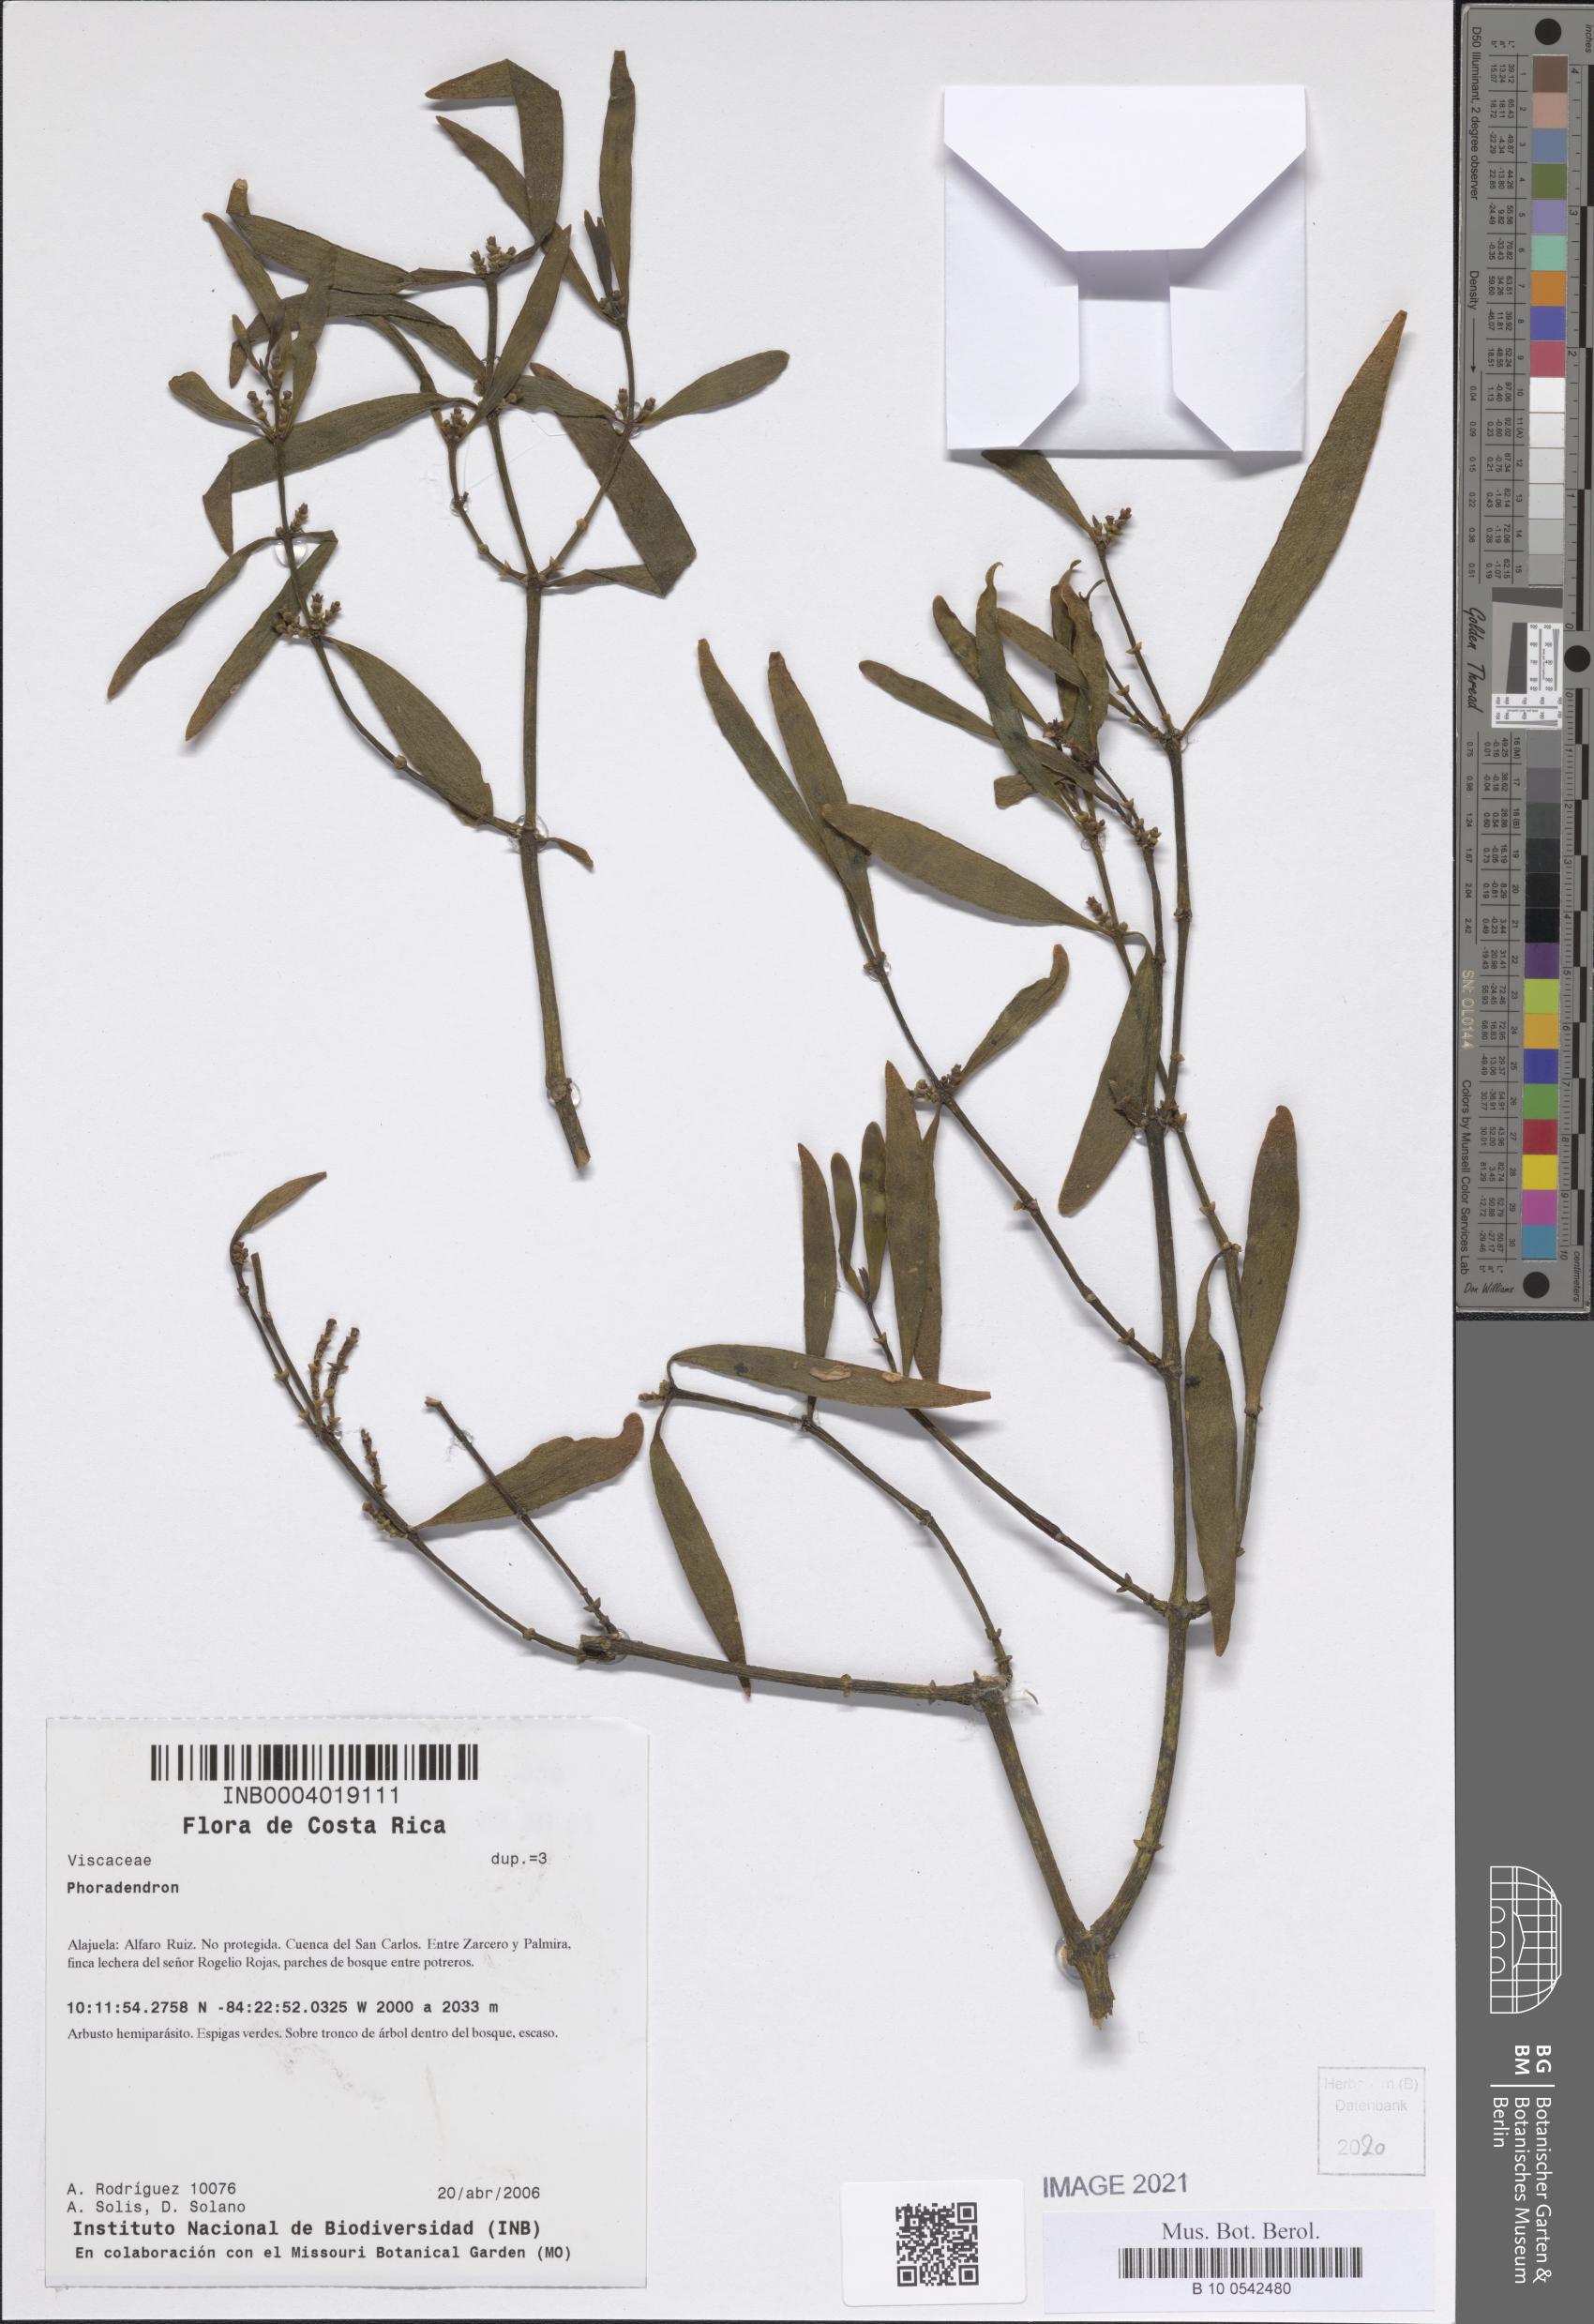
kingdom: Plantae
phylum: Tracheophyta
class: Magnoliopsida
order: Santalales
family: Viscaceae
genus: Phoradendron
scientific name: Phoradendron
